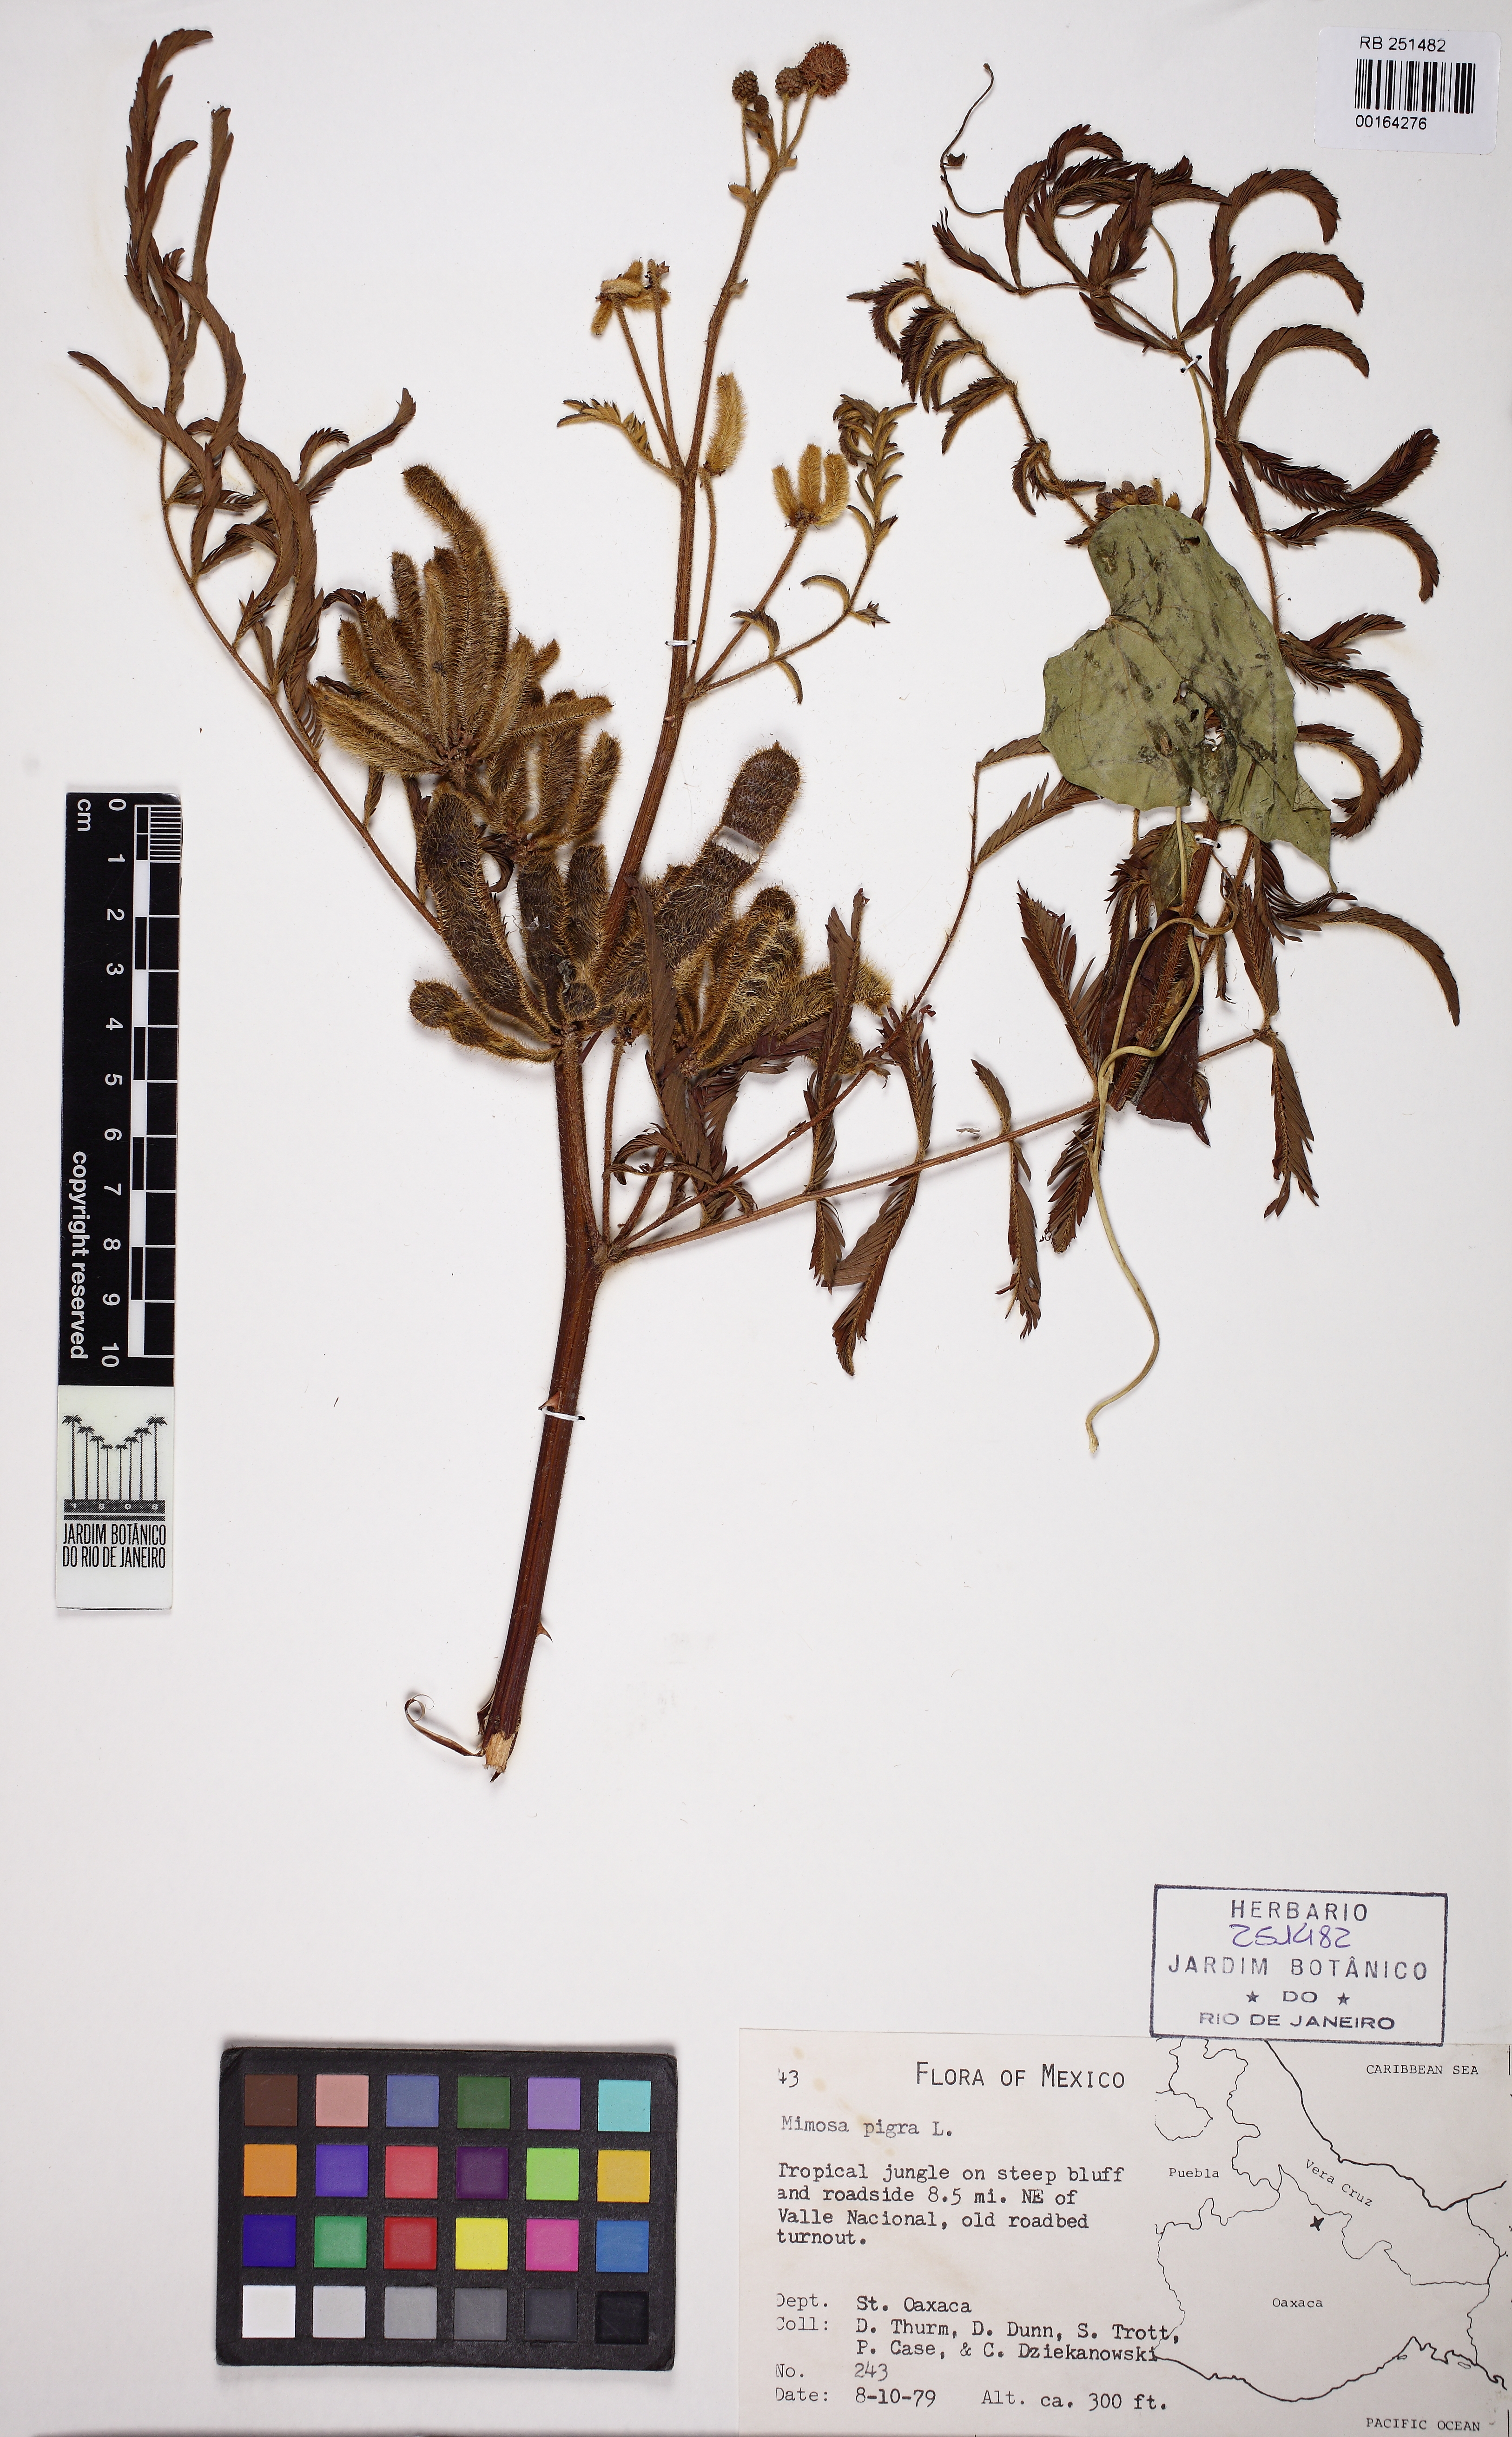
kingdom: Plantae
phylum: Tracheophyta
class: Magnoliopsida
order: Fabales
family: Fabaceae
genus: Mimosa
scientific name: Mimosa pigra
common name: Black mimosa
